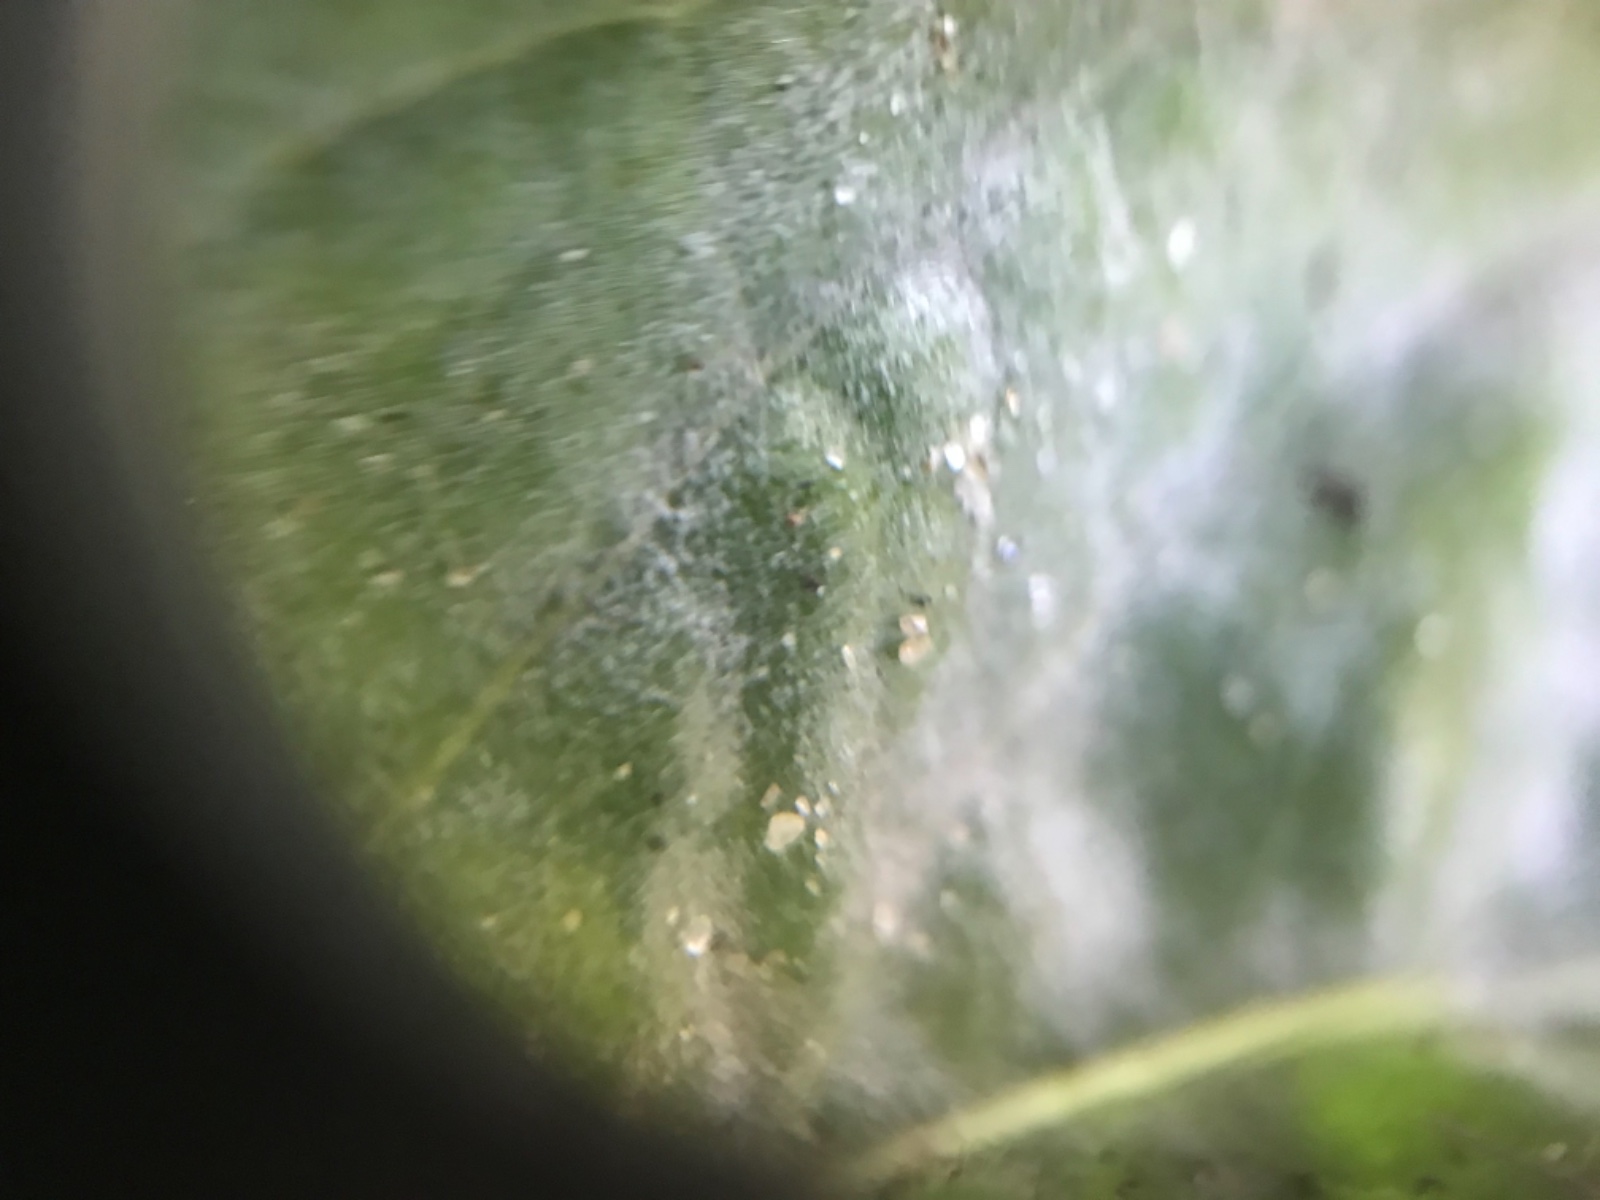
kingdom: Fungi
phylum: Ascomycota
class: Leotiomycetes
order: Helotiales
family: Erysiphaceae
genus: Leveillula
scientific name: Leveillula taurica
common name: Mediterranean poinsettia powdery mildew
